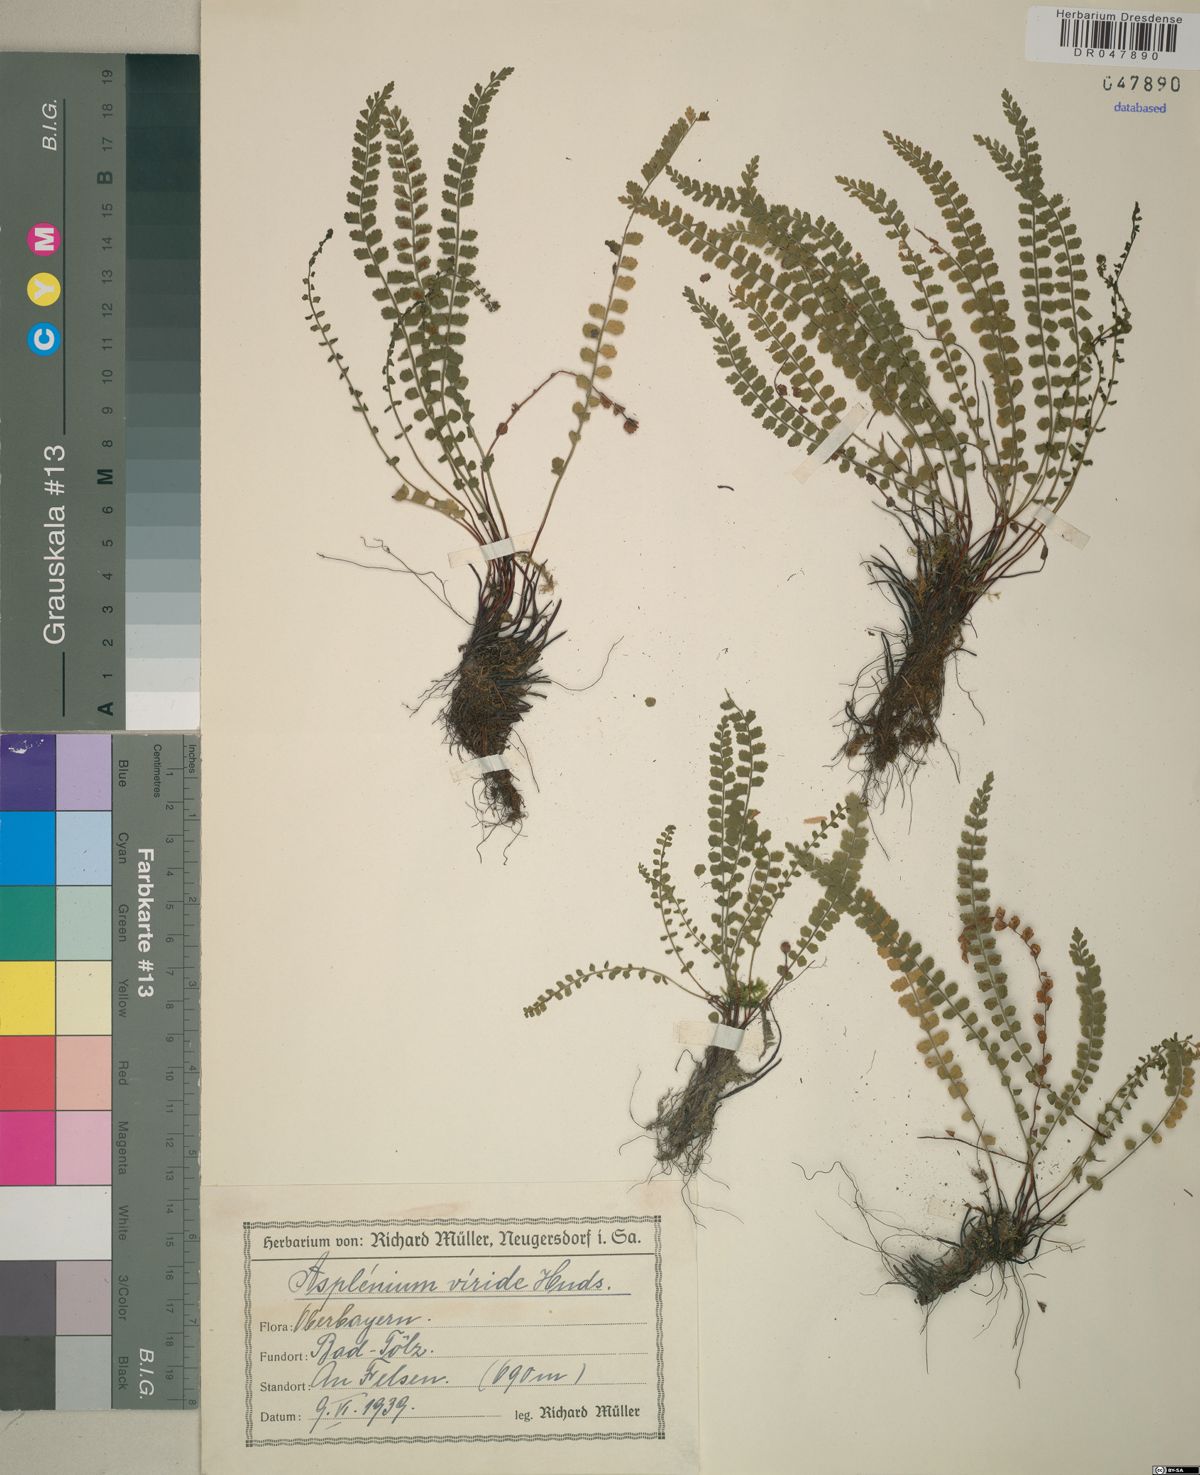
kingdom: Plantae
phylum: Tracheophyta
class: Polypodiopsida
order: Polypodiales
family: Aspleniaceae
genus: Asplenium
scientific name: Asplenium viride
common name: Green spleenwort
